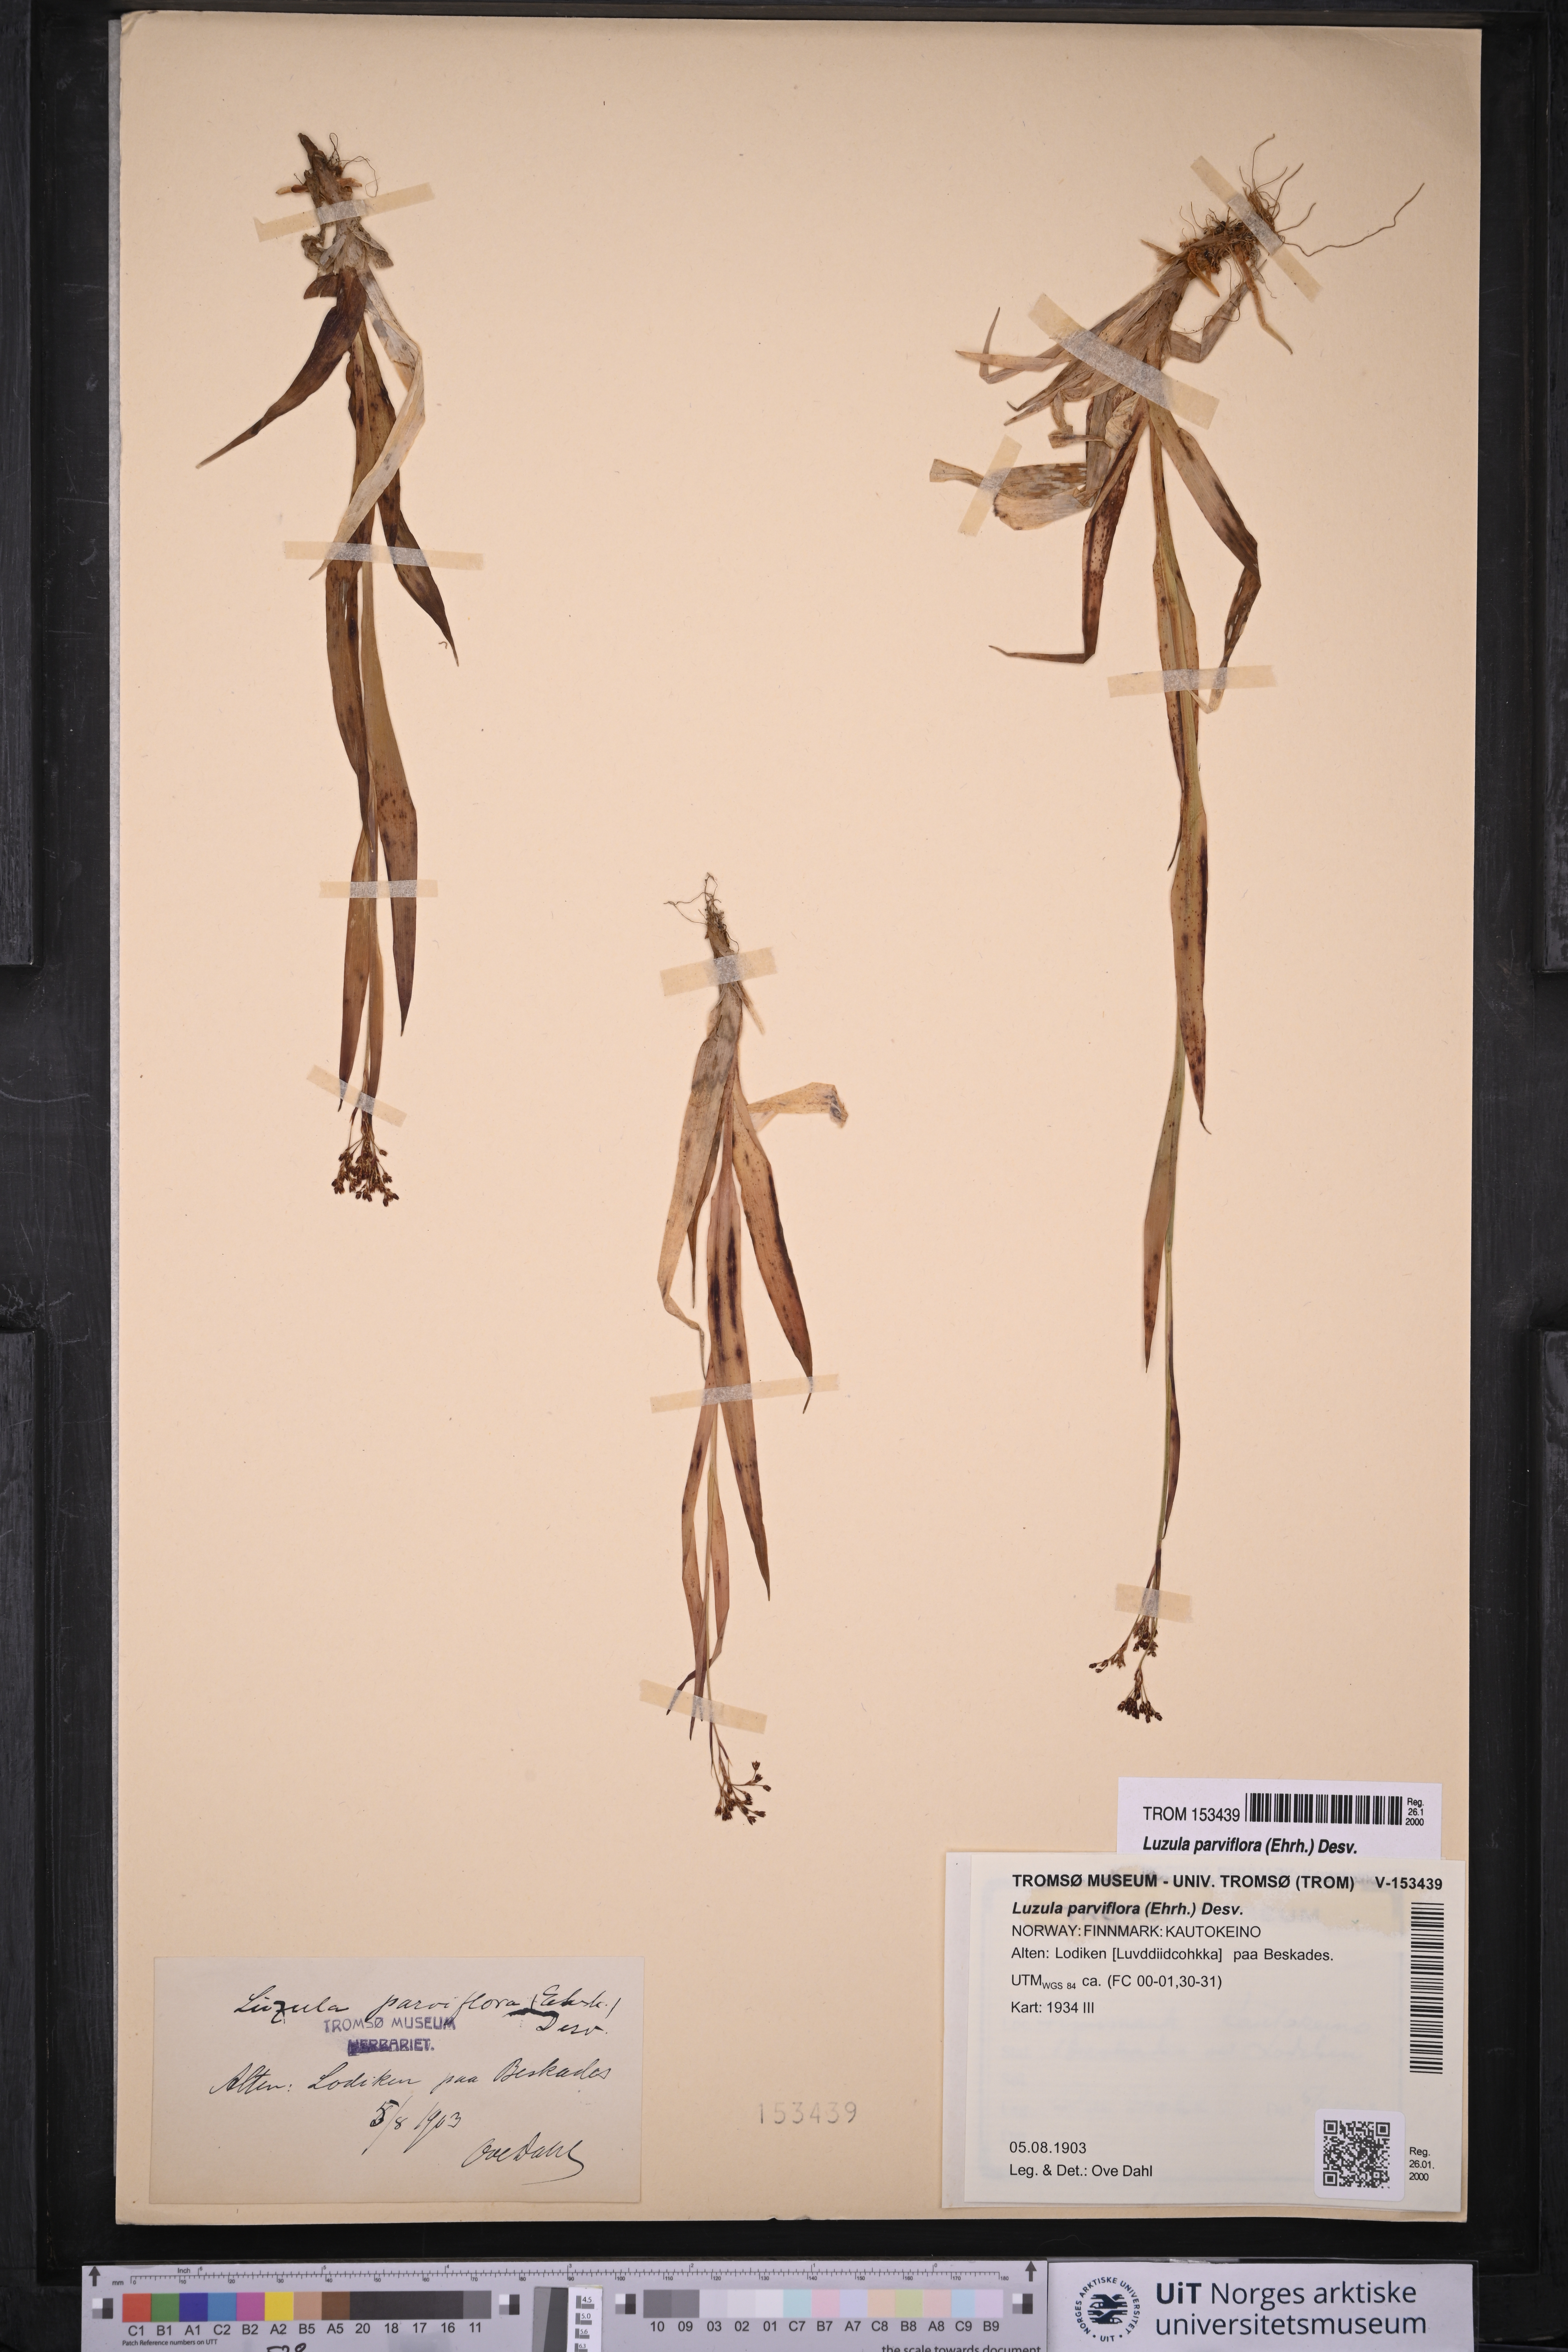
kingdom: Plantae
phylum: Tracheophyta
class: Liliopsida
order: Poales
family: Juncaceae
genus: Luzula
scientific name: Luzula parviflora
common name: Millet woodrush
